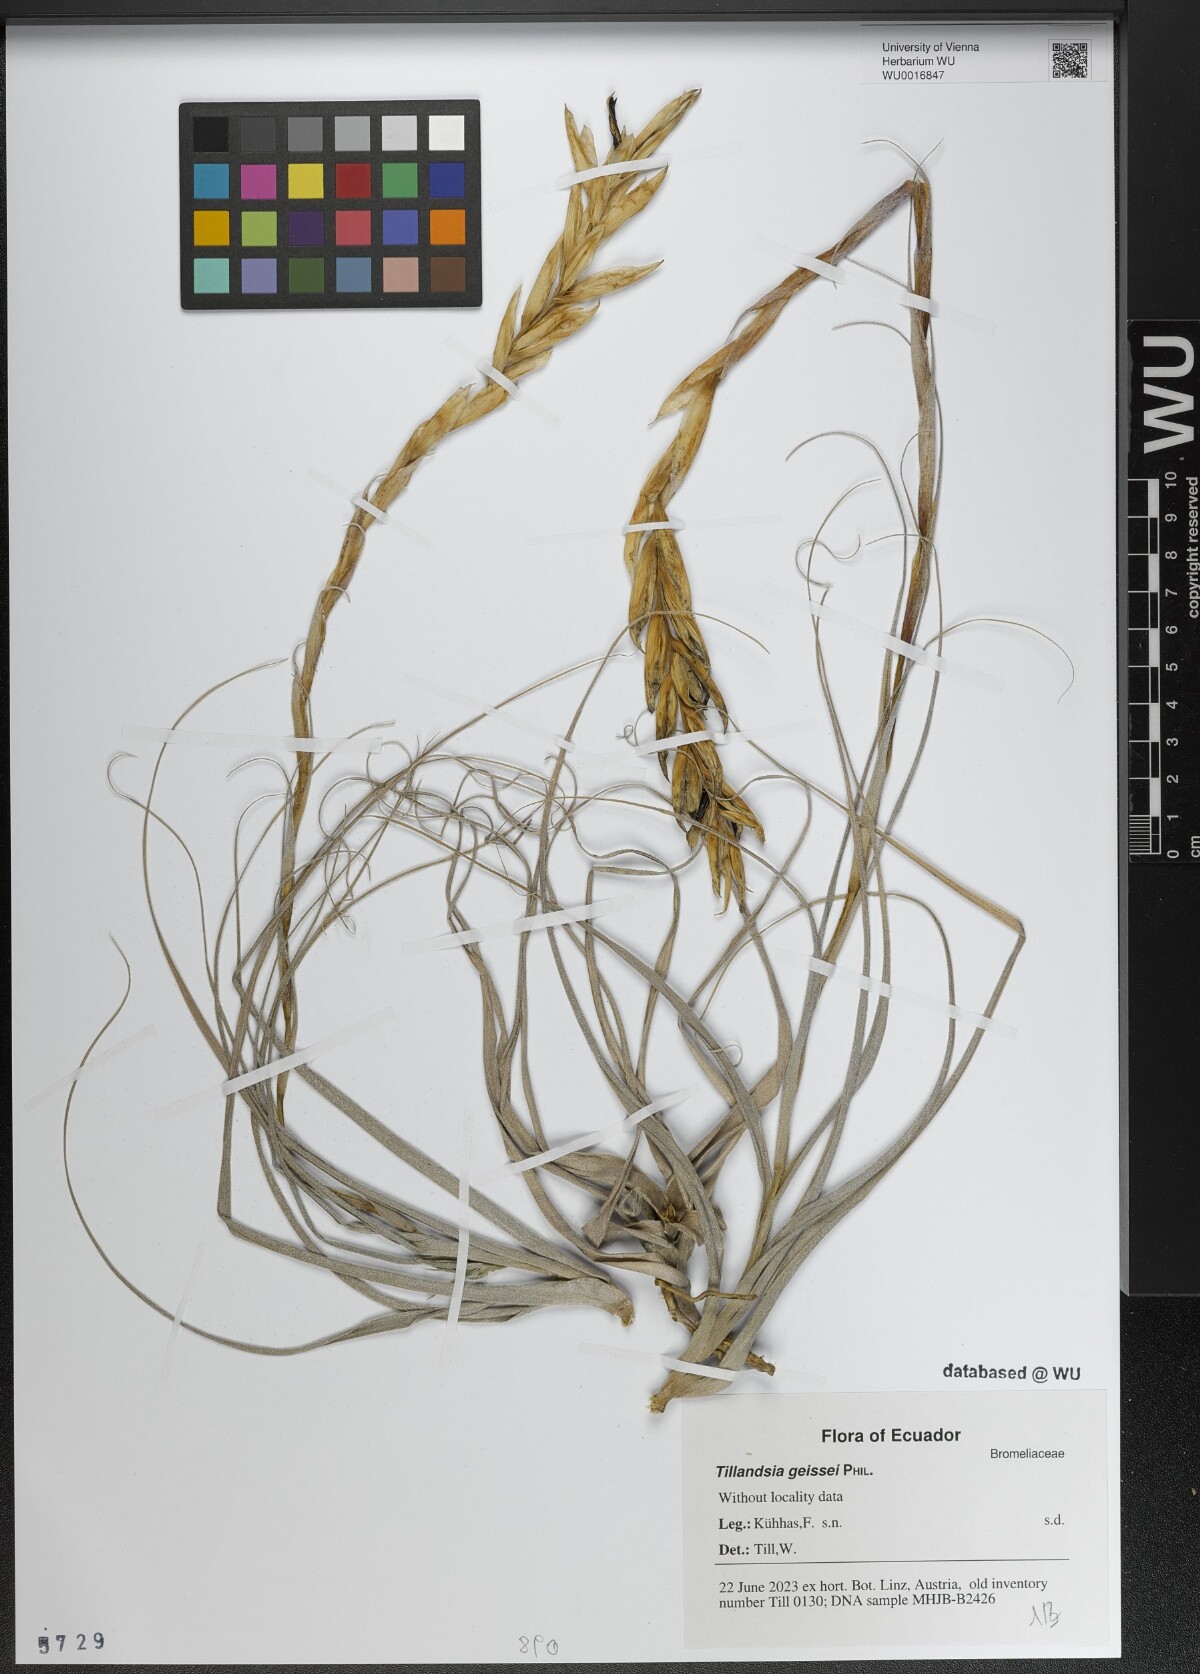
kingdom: Plantae
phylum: Tracheophyta
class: Liliopsida
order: Poales
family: Bromeliaceae
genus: Tillandsia
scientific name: Tillandsia geissei
